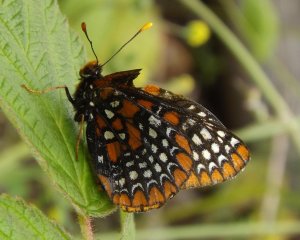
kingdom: Animalia
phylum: Arthropoda
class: Insecta
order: Lepidoptera
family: Nymphalidae
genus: Euphydryas
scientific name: Euphydryas phaeton
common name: Baltimore Checkerspot
